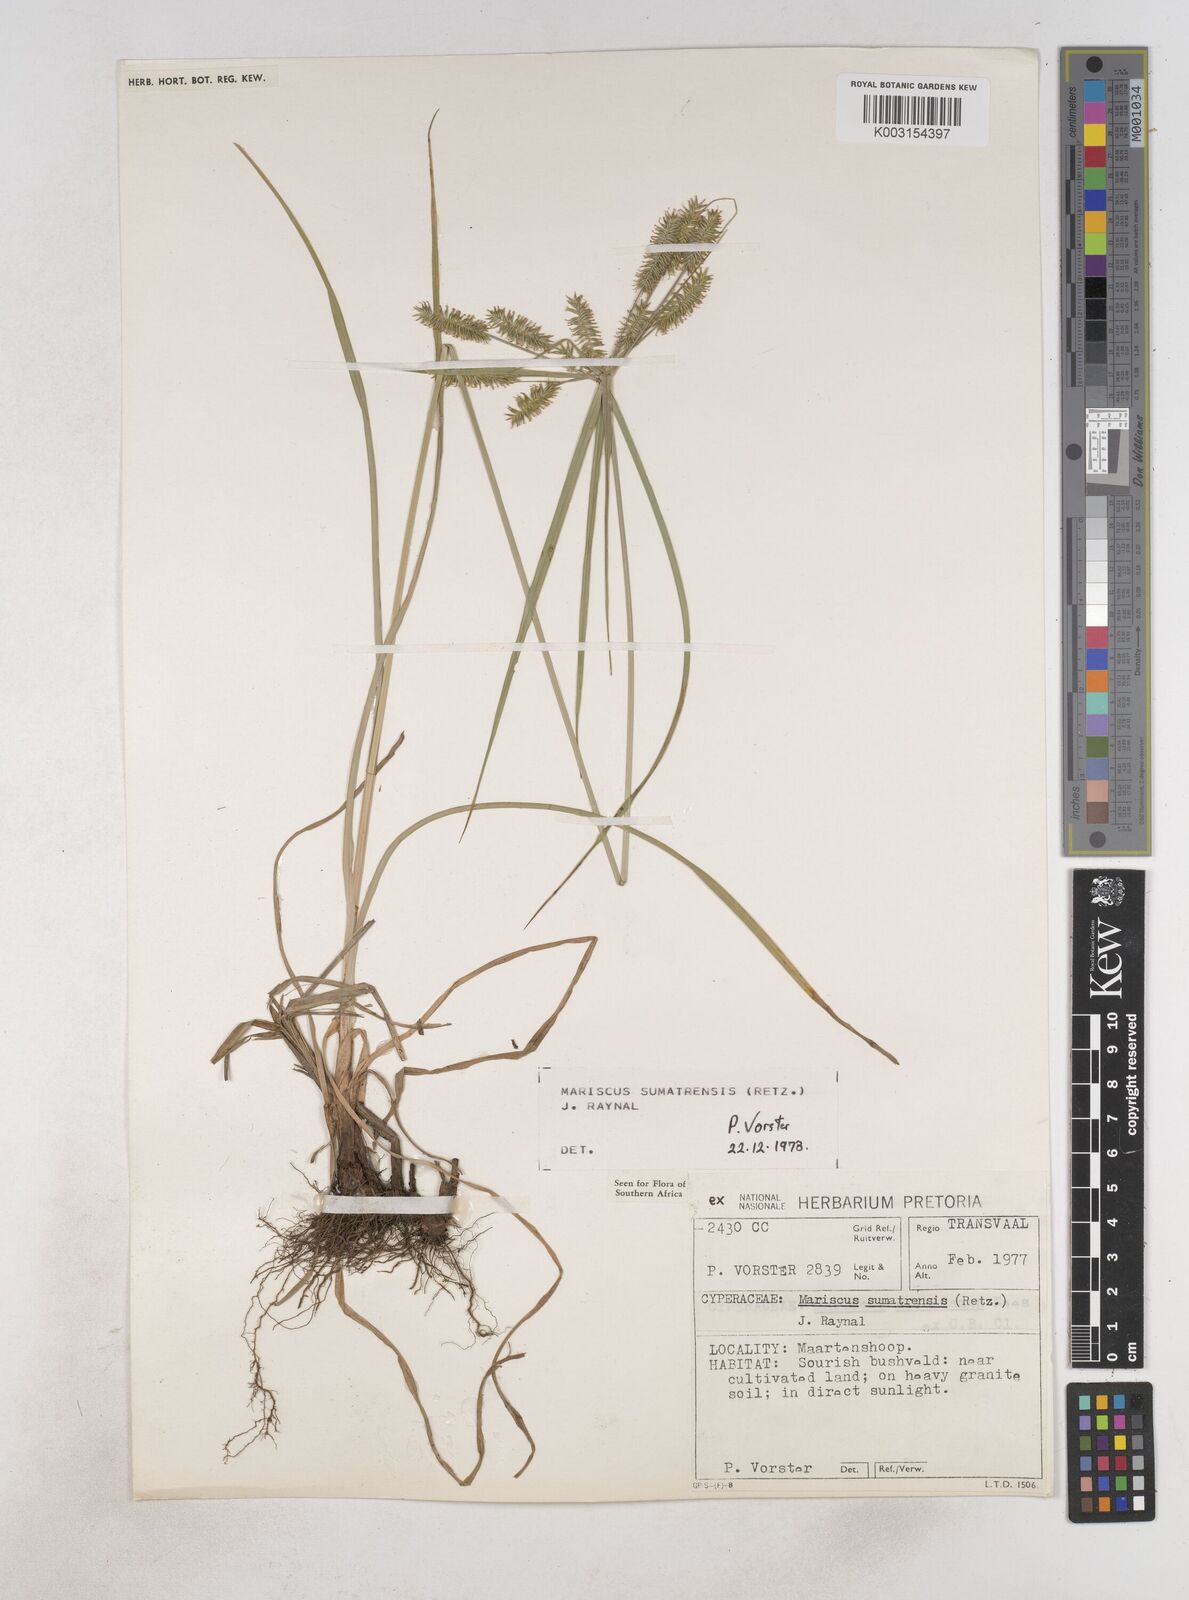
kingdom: Plantae
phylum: Tracheophyta
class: Liliopsida
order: Poales
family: Cyperaceae
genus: Cyperus
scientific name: Cyperus cyperoides
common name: Pacific island flat sedge
